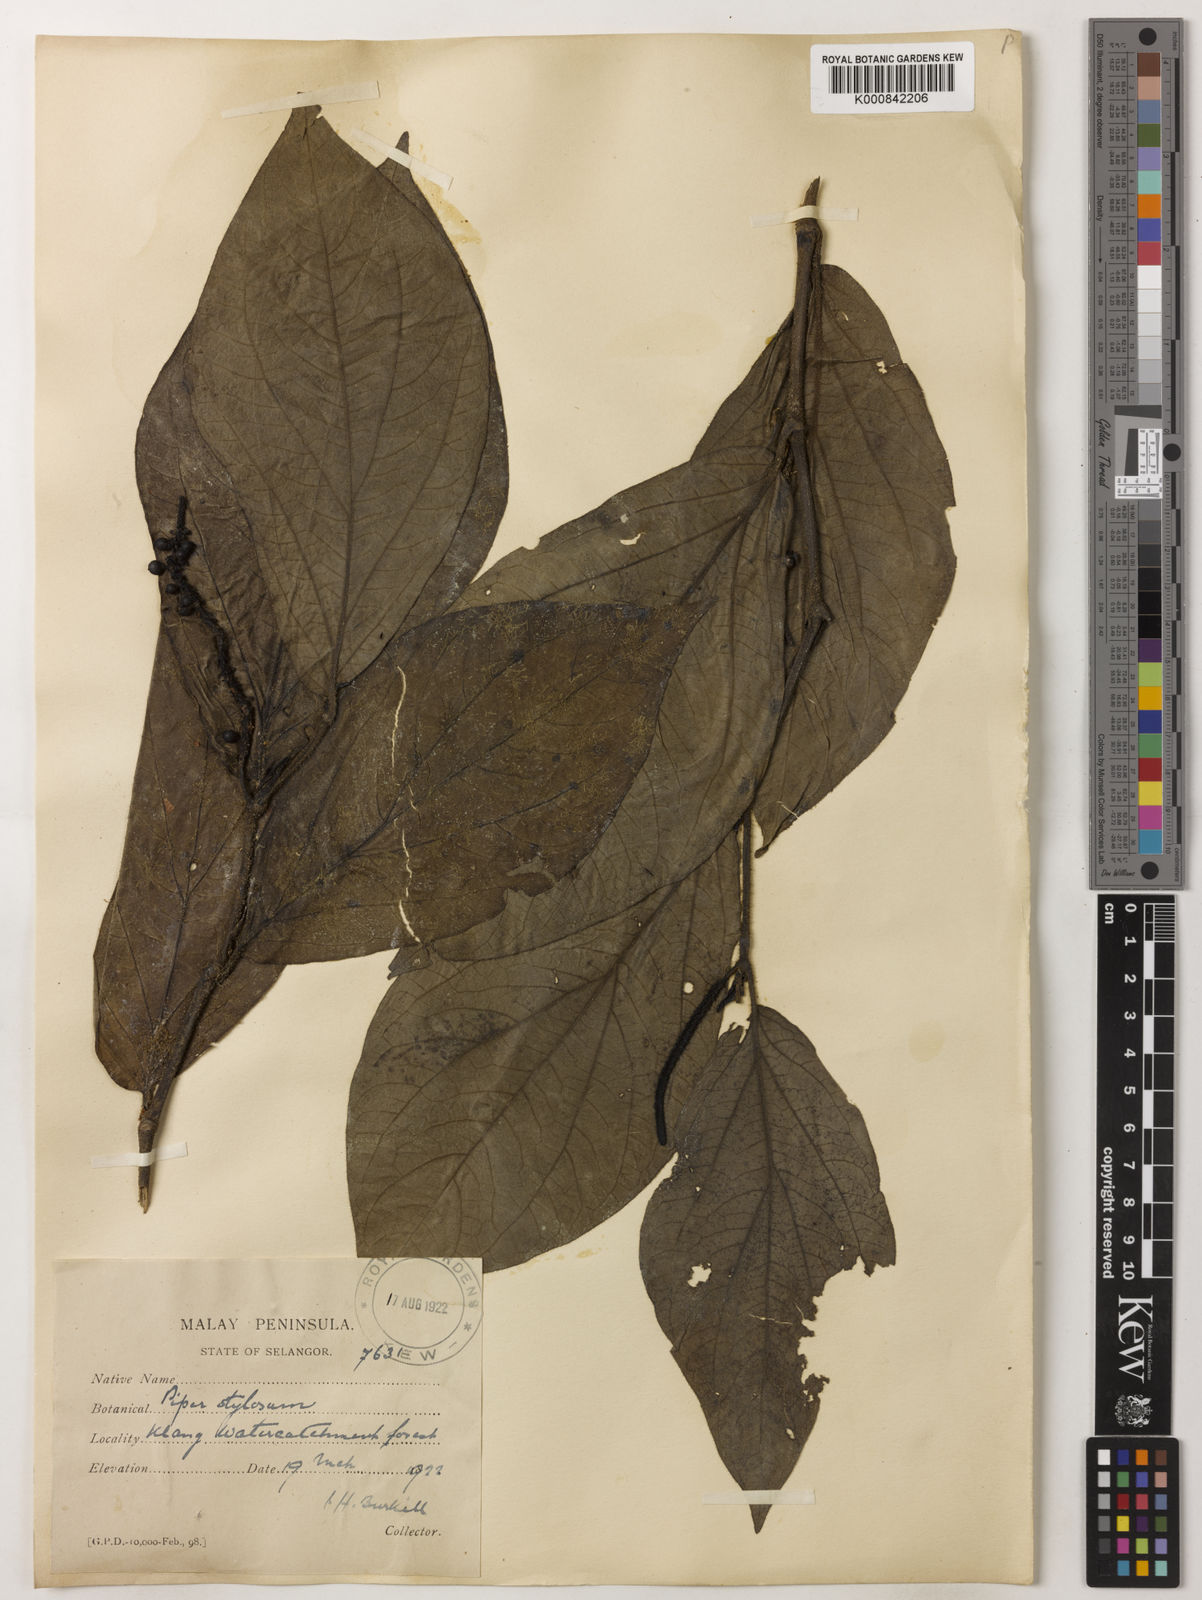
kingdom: Plantae
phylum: Tracheophyta
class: Magnoliopsida
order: Piperales
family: Piperaceae
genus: Piper
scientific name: Piper muricatum
